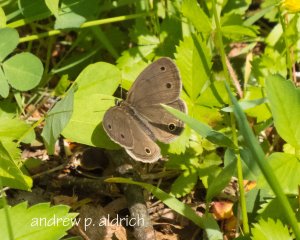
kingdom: Animalia
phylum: Arthropoda
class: Insecta
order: Lepidoptera
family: Nymphalidae
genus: Euptychia
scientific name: Euptychia cymela
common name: Little Wood Satyr
